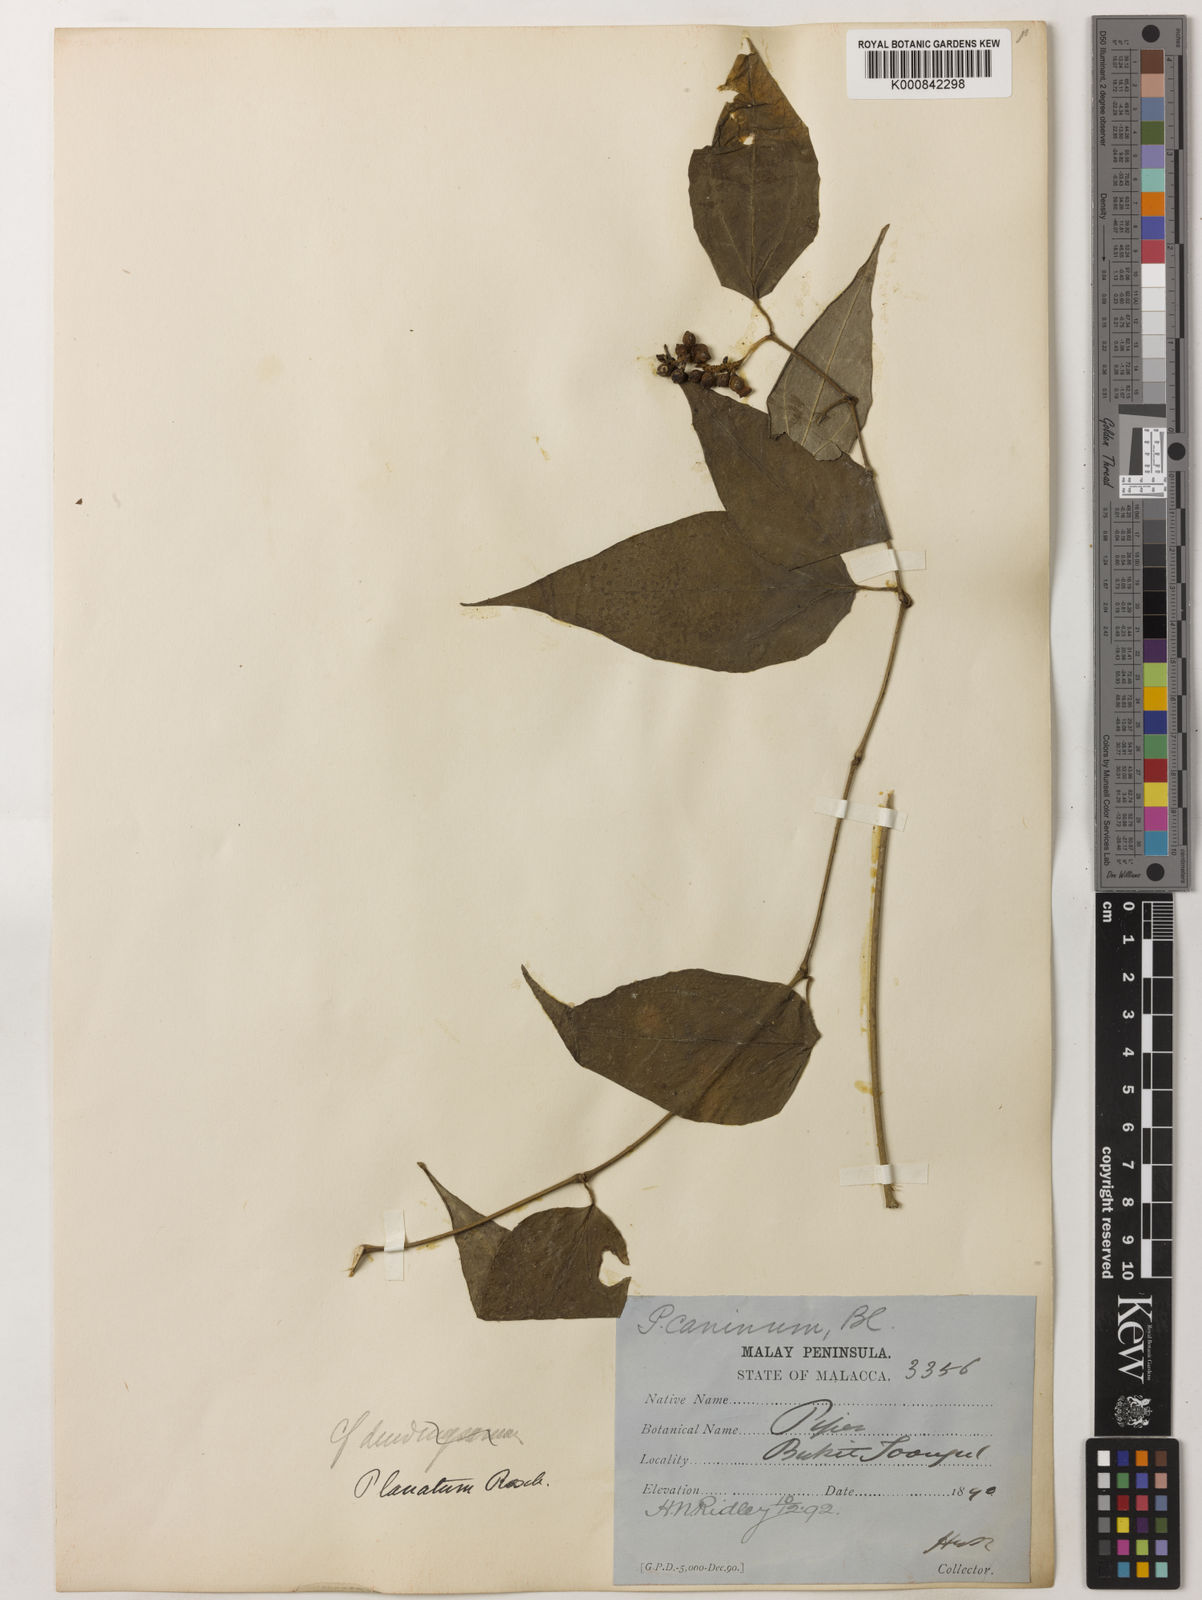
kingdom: Plantae
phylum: Tracheophyta
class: Magnoliopsida
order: Piperales
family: Piperaceae
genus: Piper
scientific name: Piper lanatum
